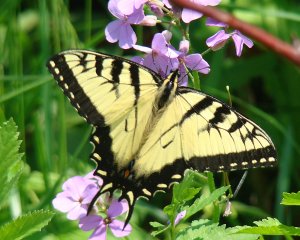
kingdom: Animalia
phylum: Arthropoda
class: Insecta
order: Lepidoptera
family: Papilionidae
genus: Papilio
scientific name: Papilio
